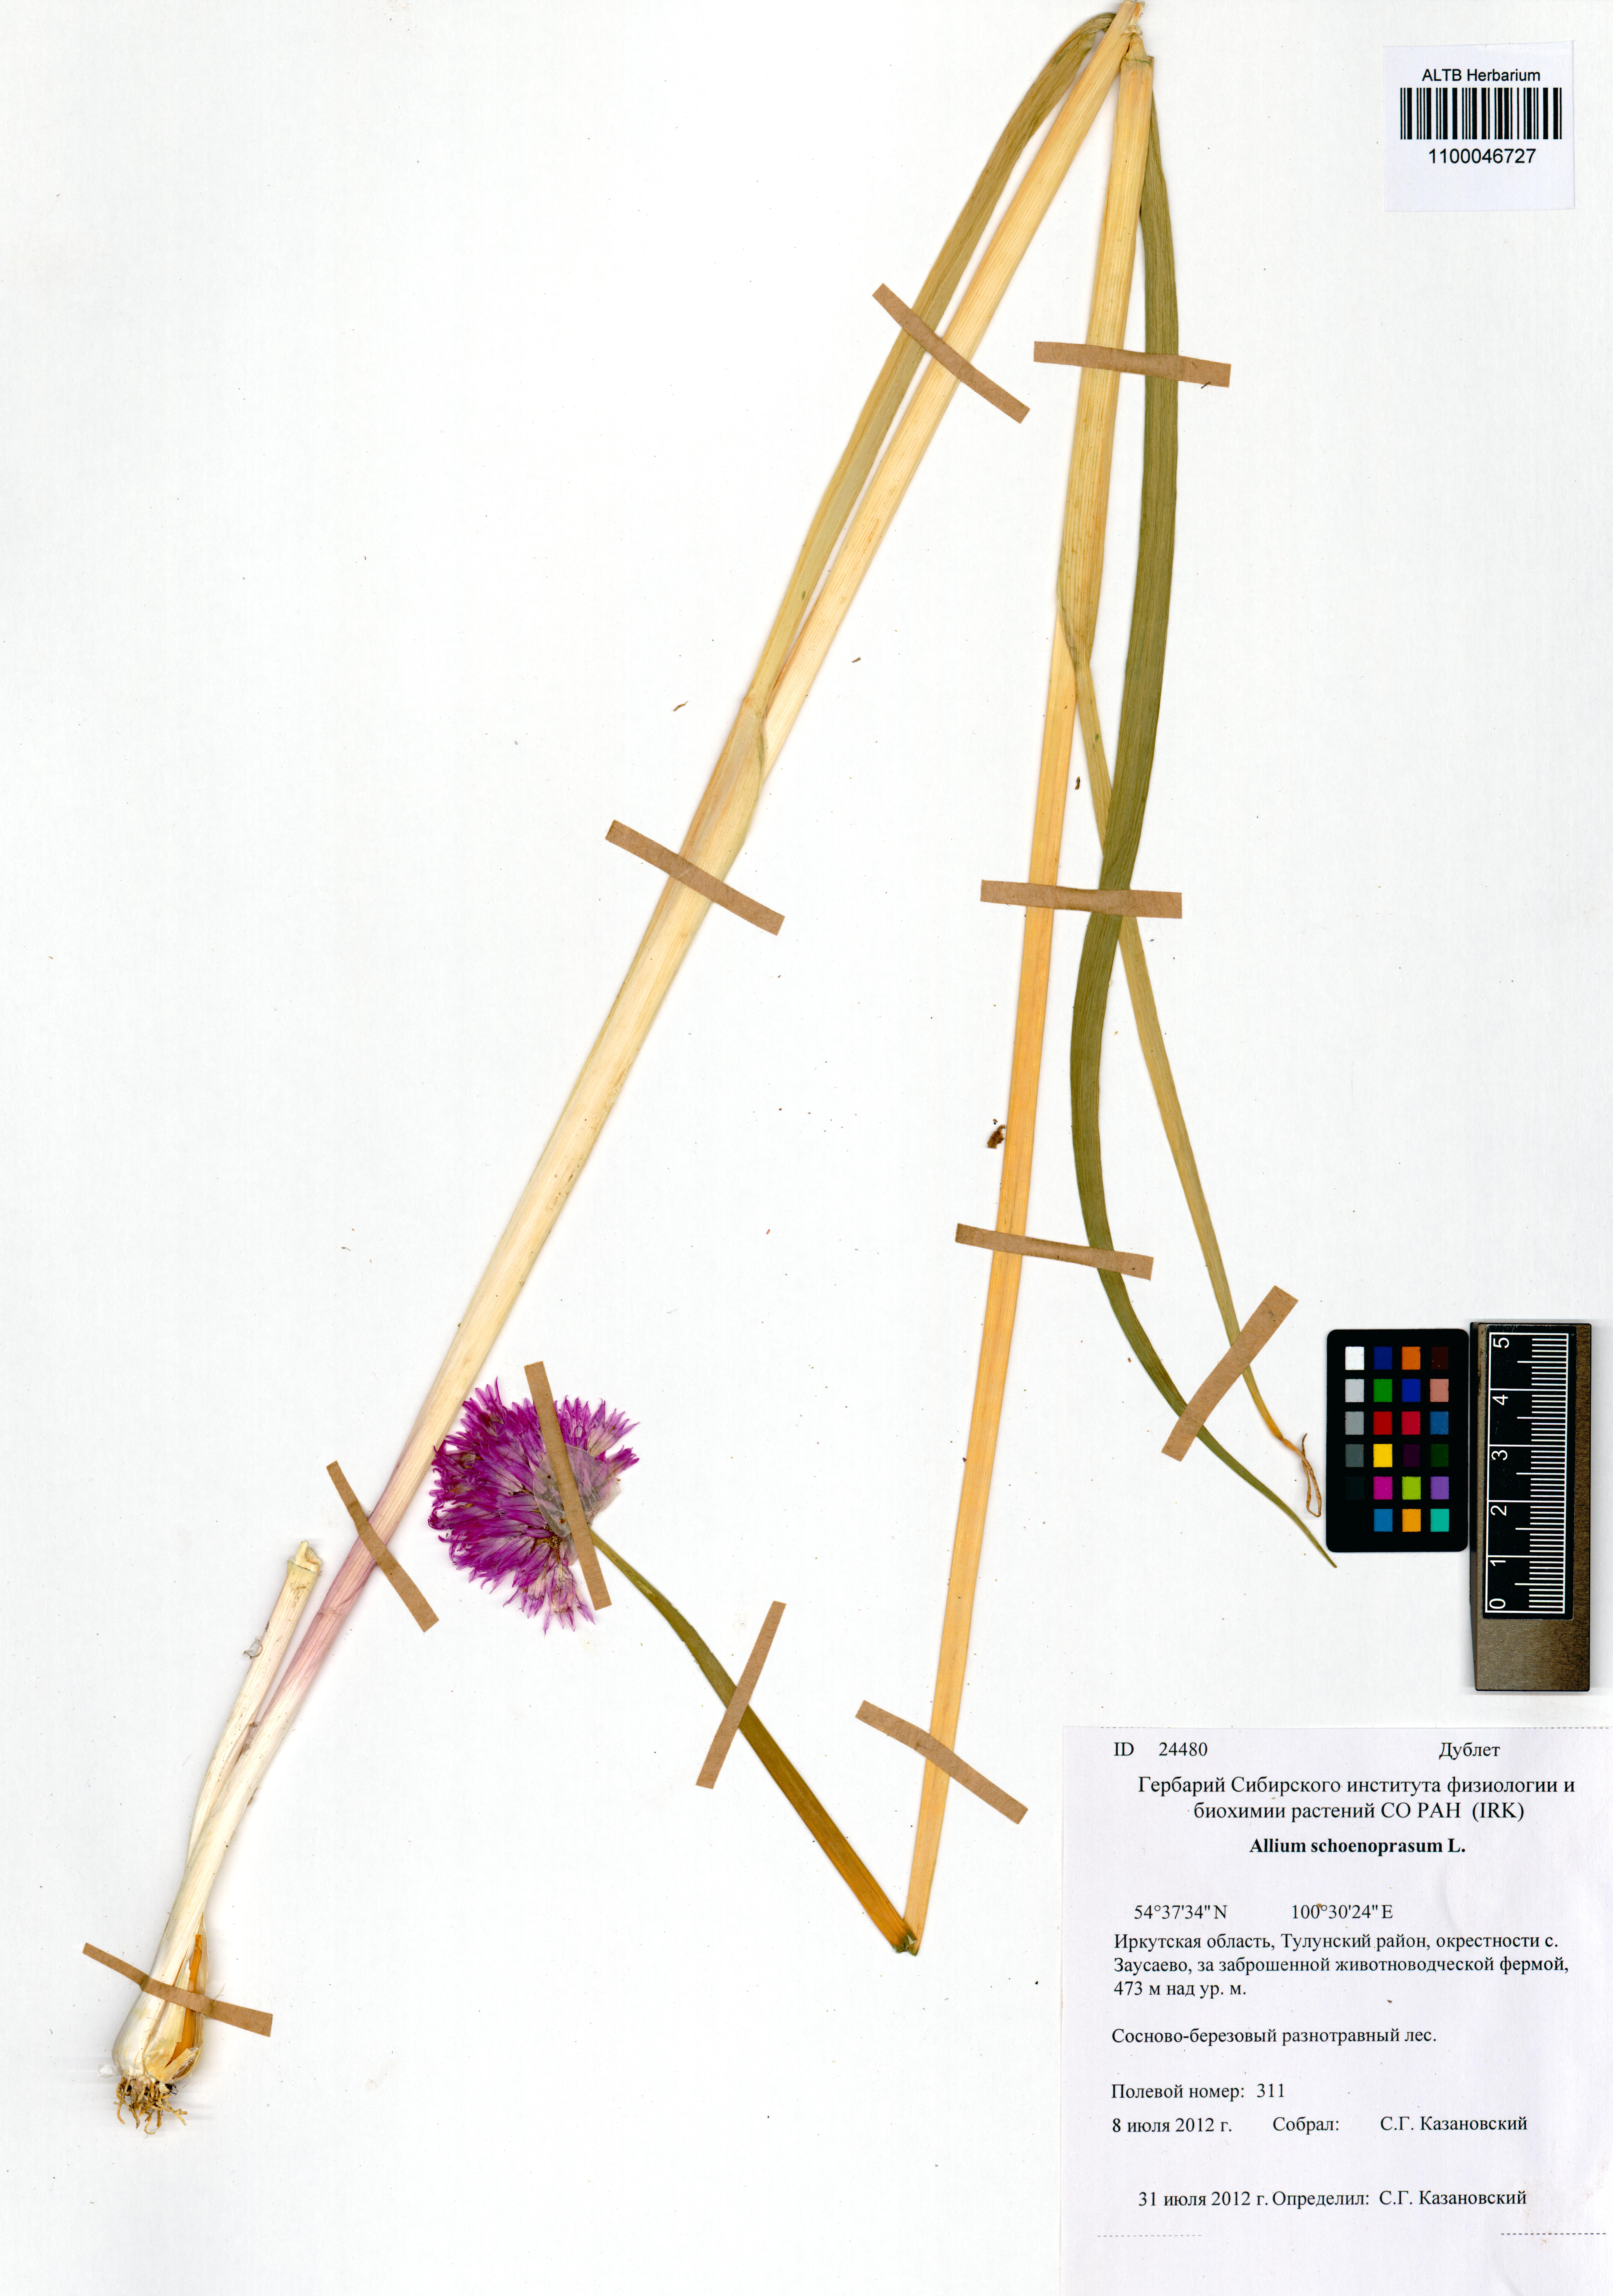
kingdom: Plantae
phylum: Tracheophyta
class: Liliopsida
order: Asparagales
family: Amaryllidaceae
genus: Allium
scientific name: Allium schoenoprasum
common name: Chives
